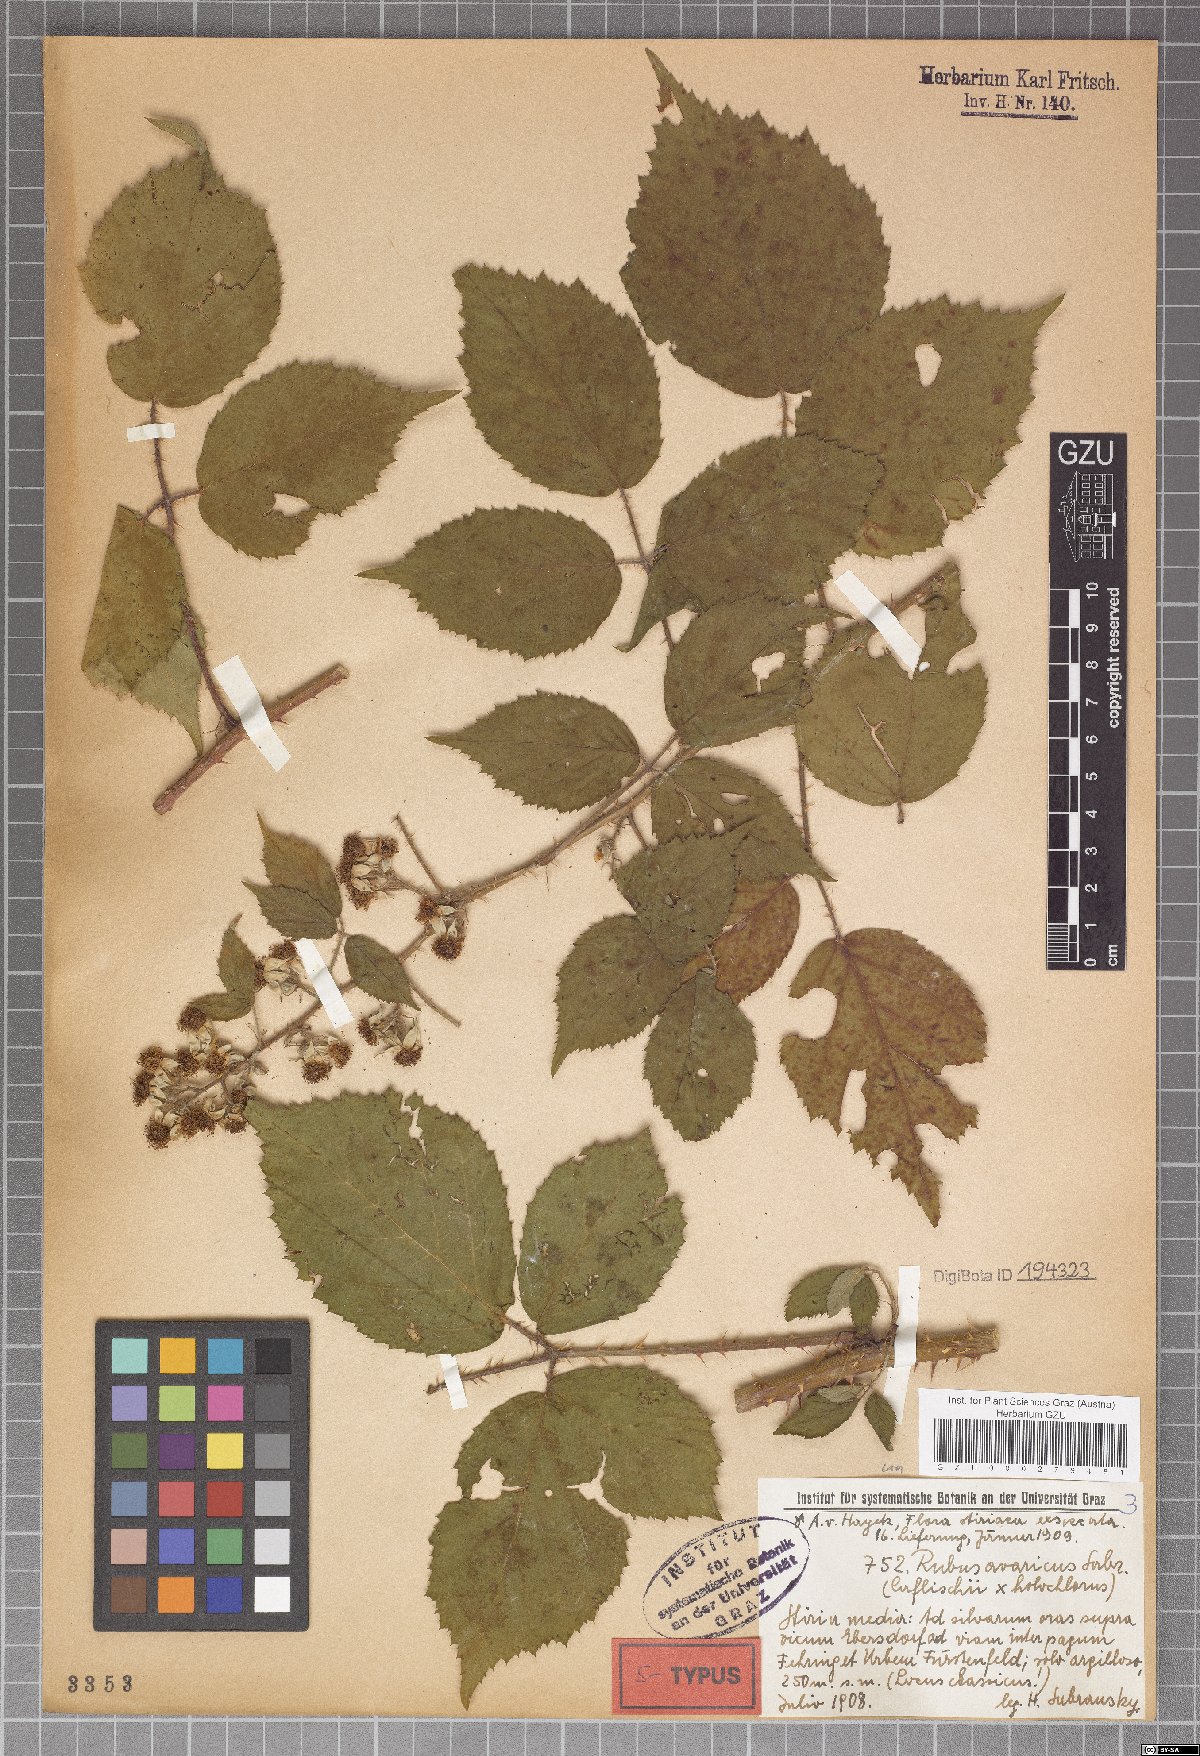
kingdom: Plantae
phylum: Tracheophyta
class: Magnoliopsida
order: Rosales
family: Rosaceae
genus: Rubus
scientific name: Rubus avaricus
